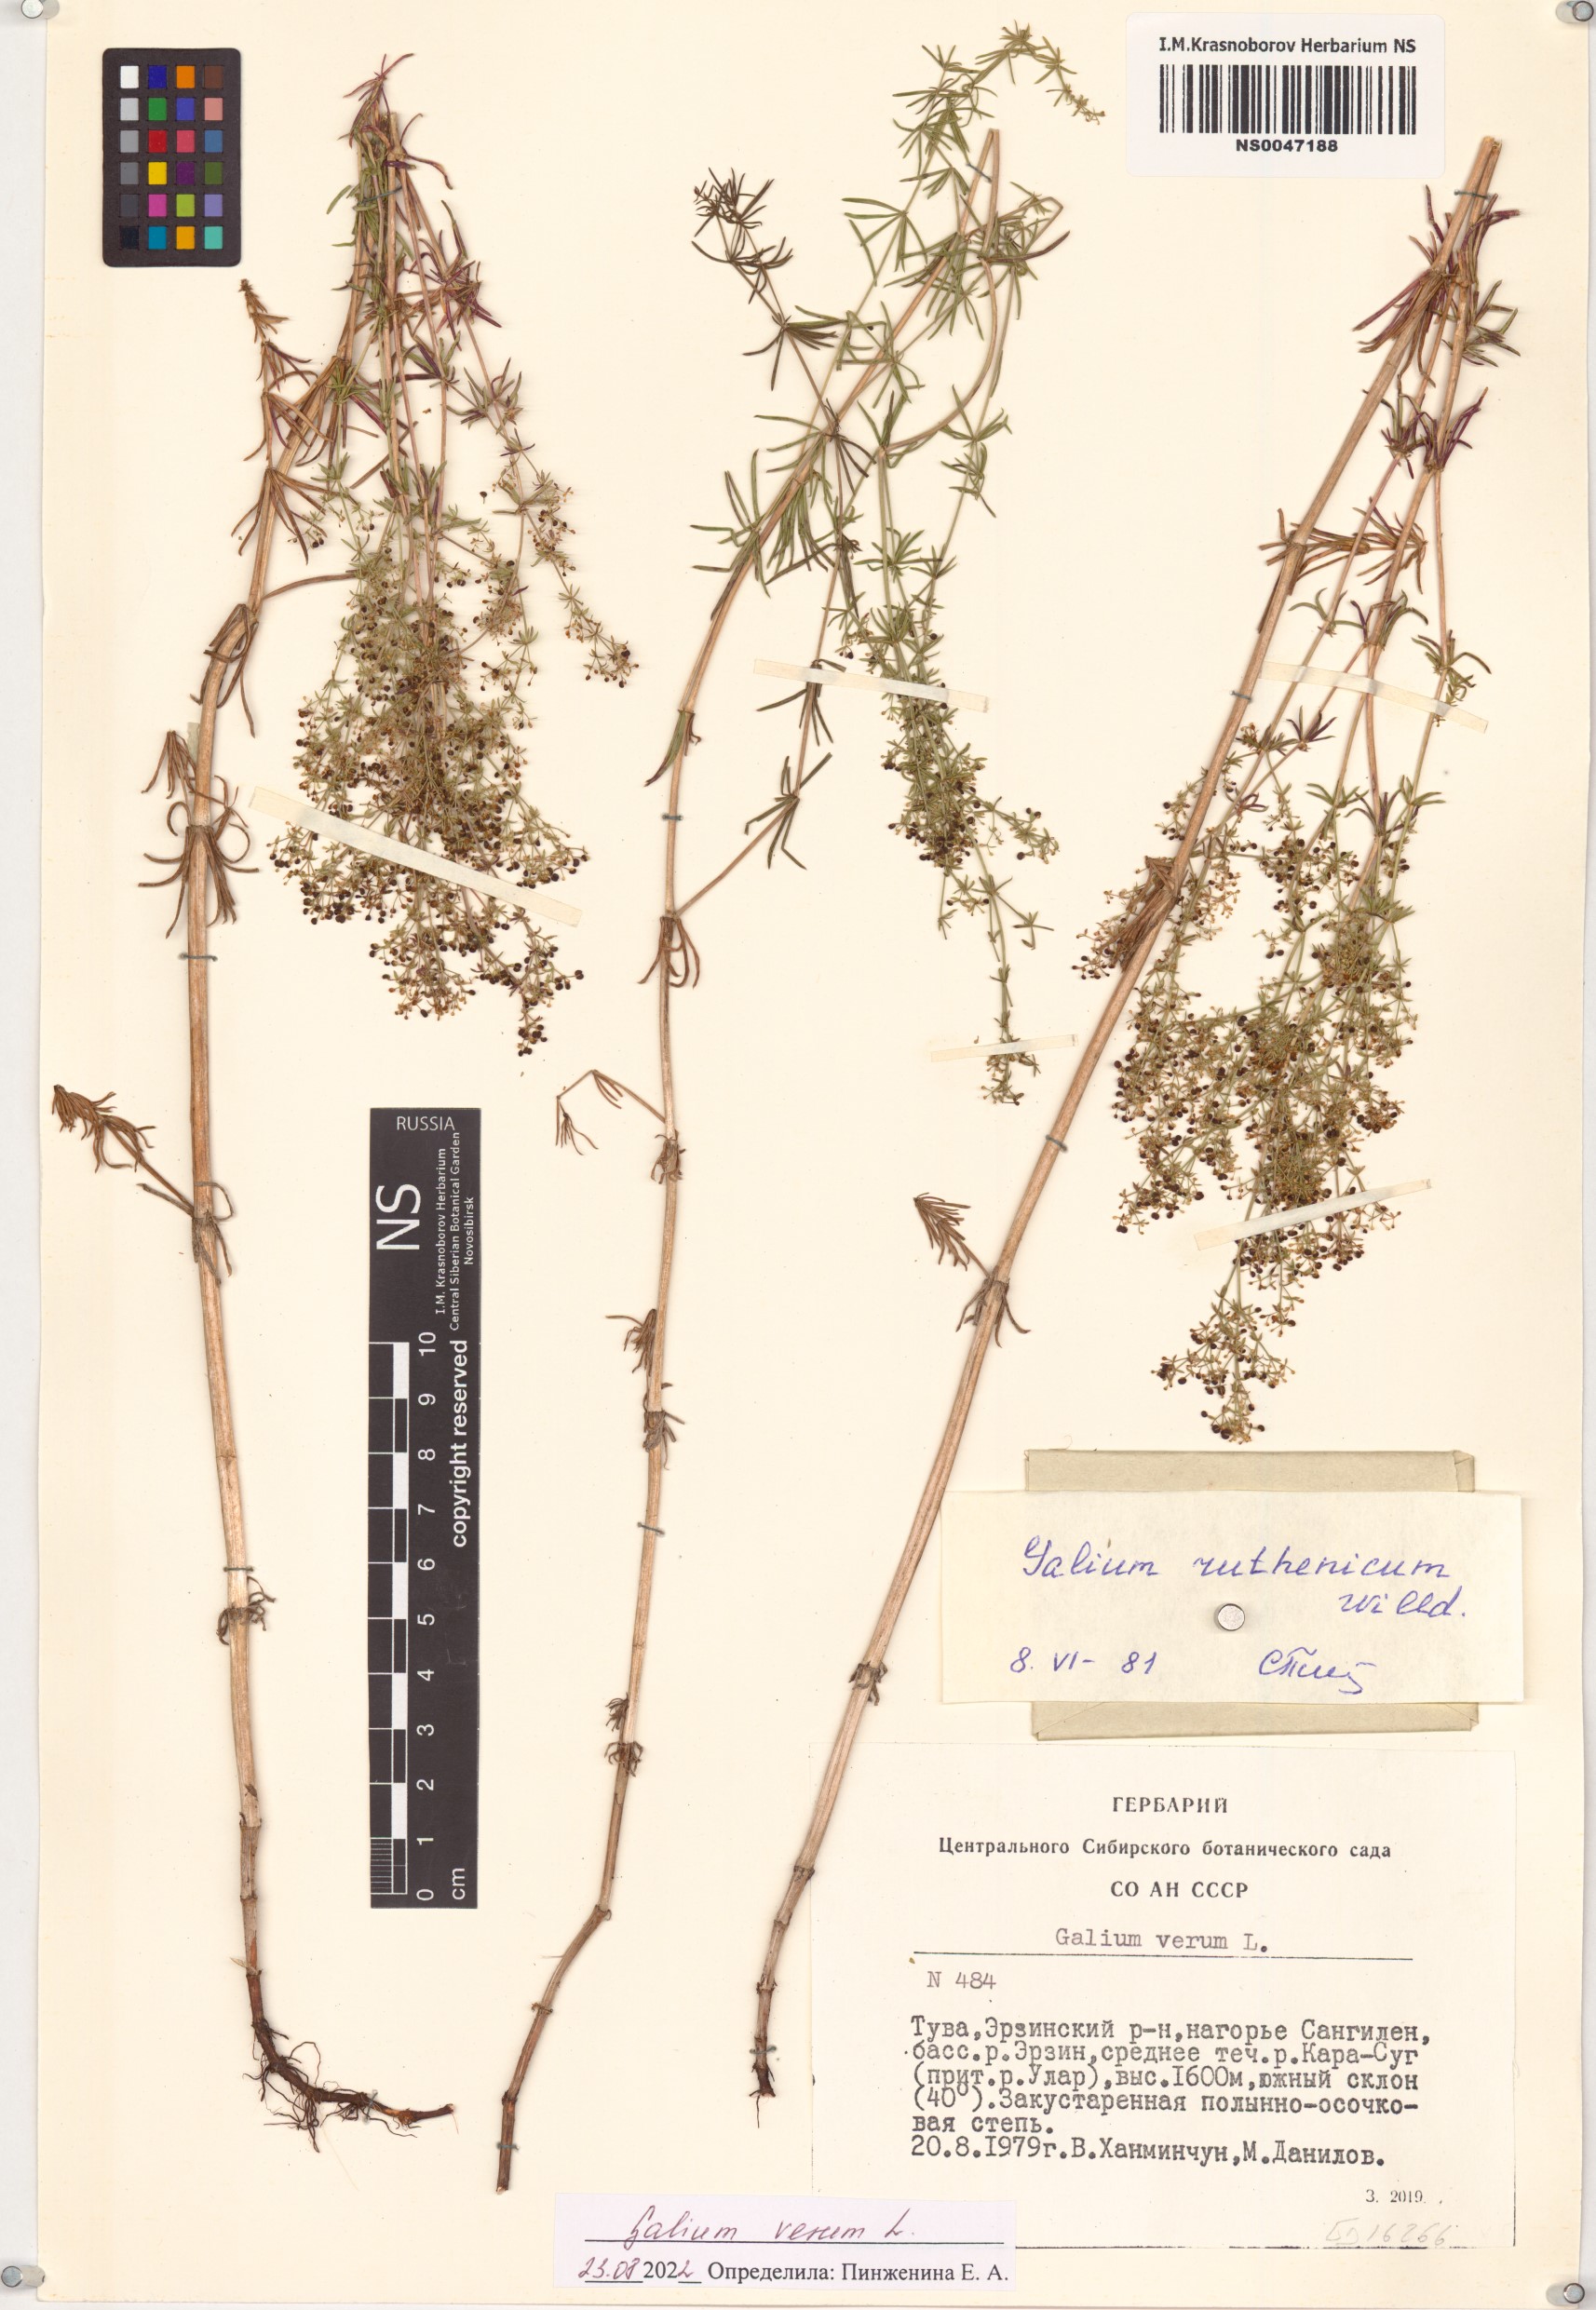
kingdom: Plantae
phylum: Tracheophyta
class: Magnoliopsida
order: Gentianales
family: Rubiaceae
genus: Galium
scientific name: Galium verum
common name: Lady's bedstraw
